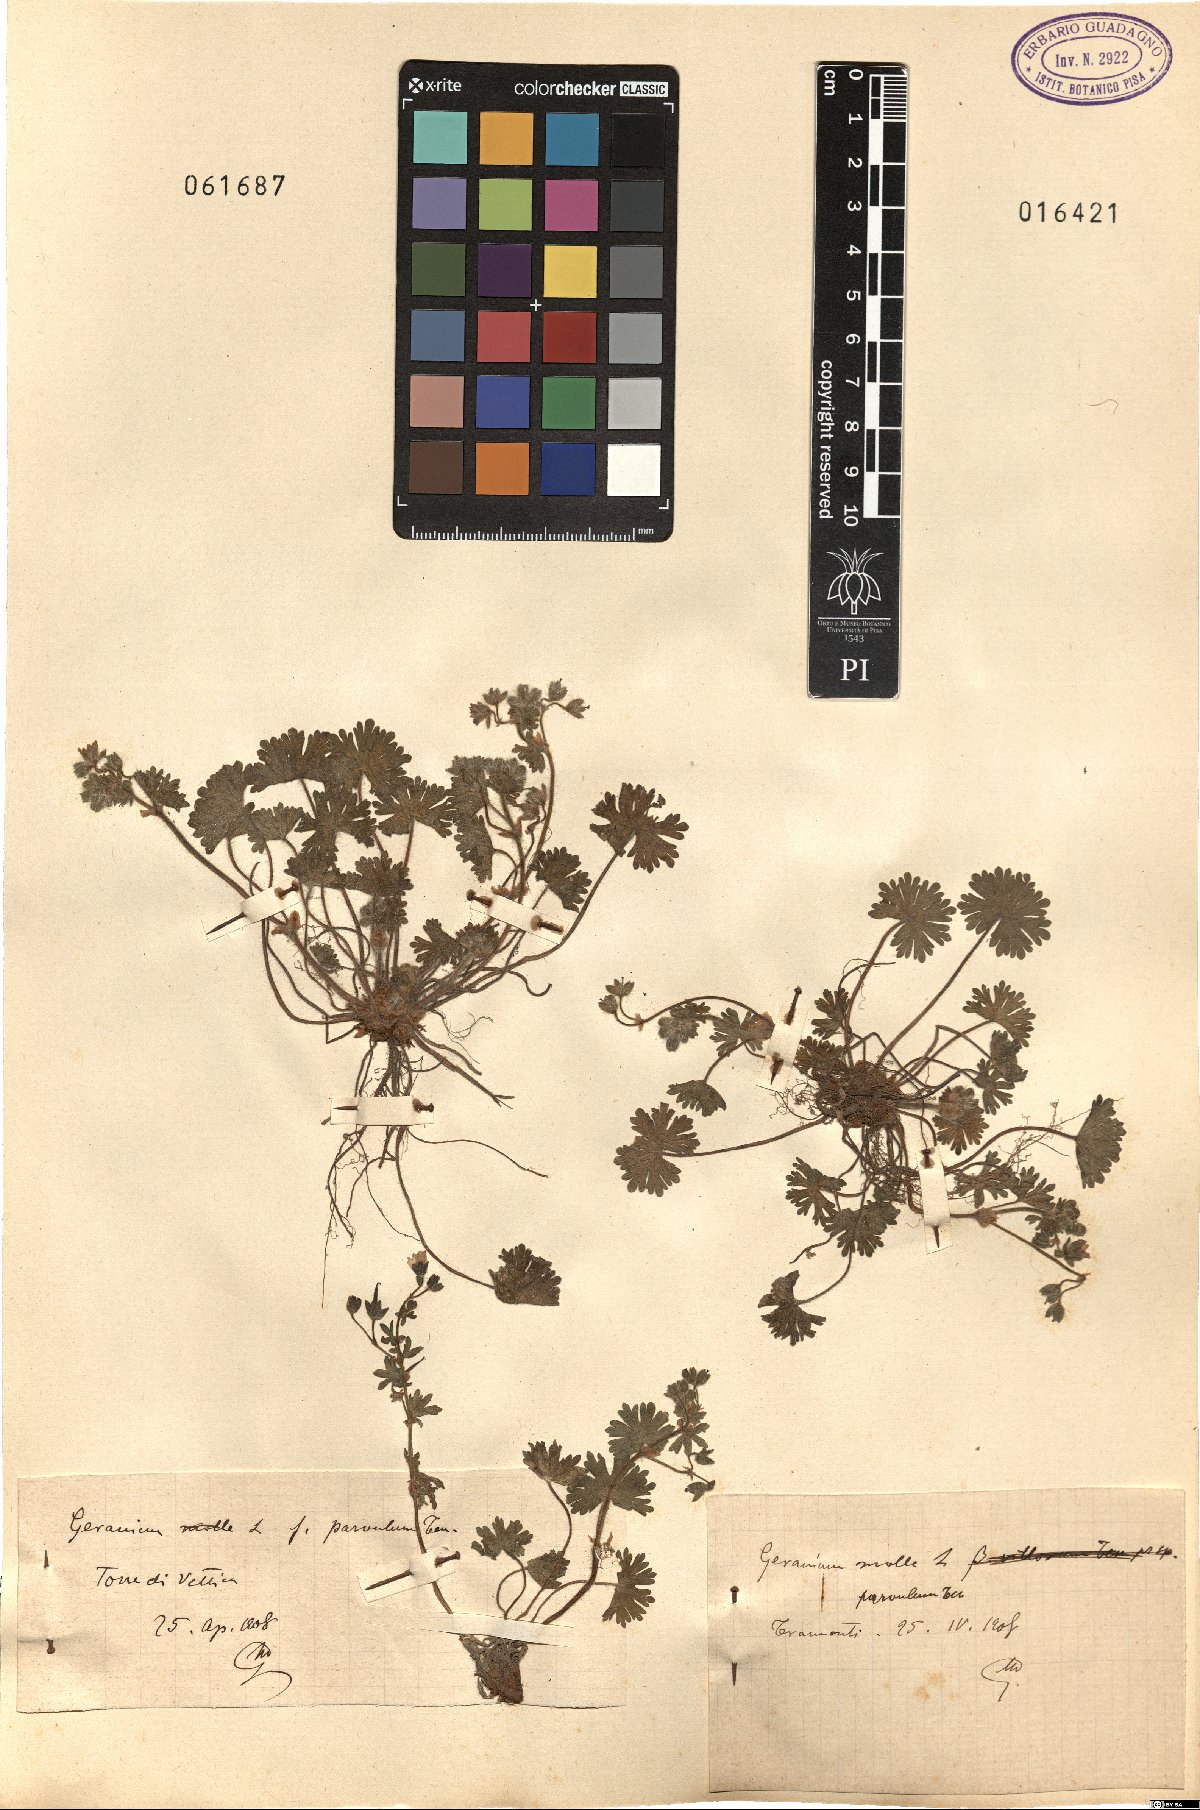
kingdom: Plantae
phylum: Tracheophyta
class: Magnoliopsida
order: Geraniales
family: Geraniaceae
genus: Geranium
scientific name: Geranium molle
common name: Dove's-foot crane's-bill
